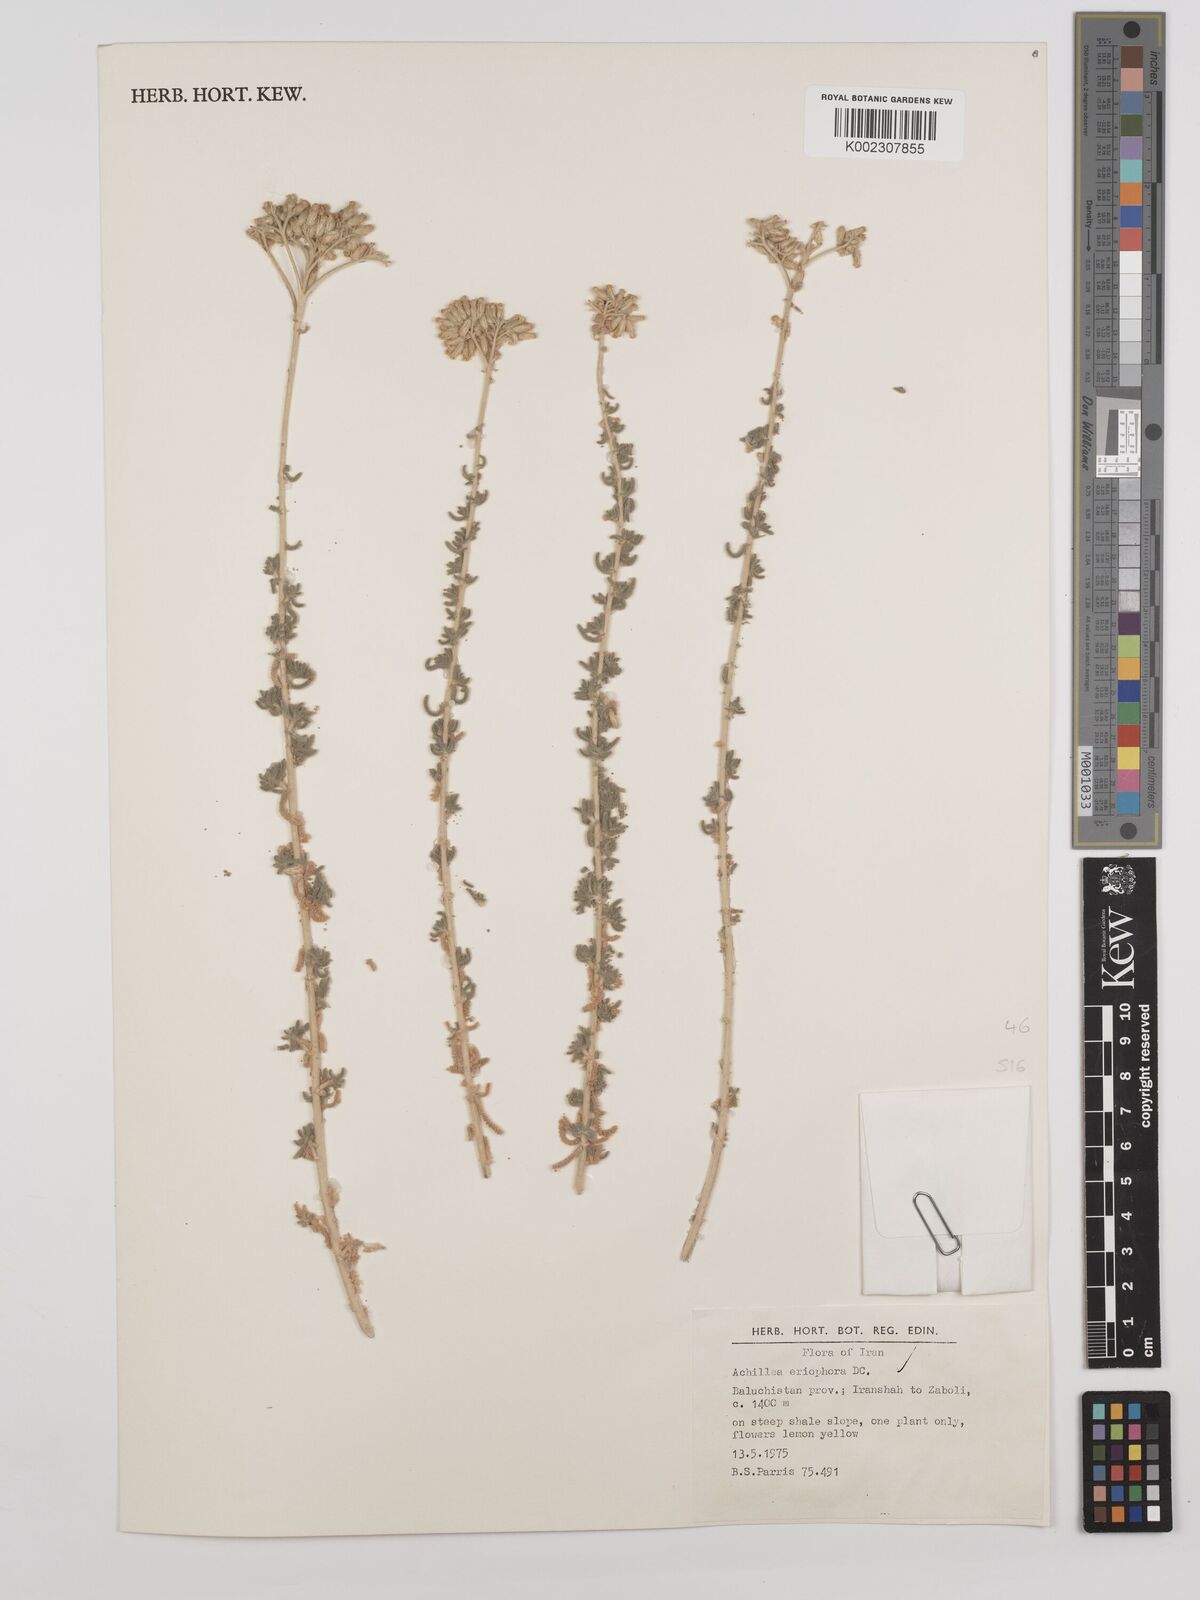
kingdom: Plantae
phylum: Tracheophyta
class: Magnoliopsida
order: Asterales
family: Asteraceae
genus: Achillea
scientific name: Achillea wilhelmsii
